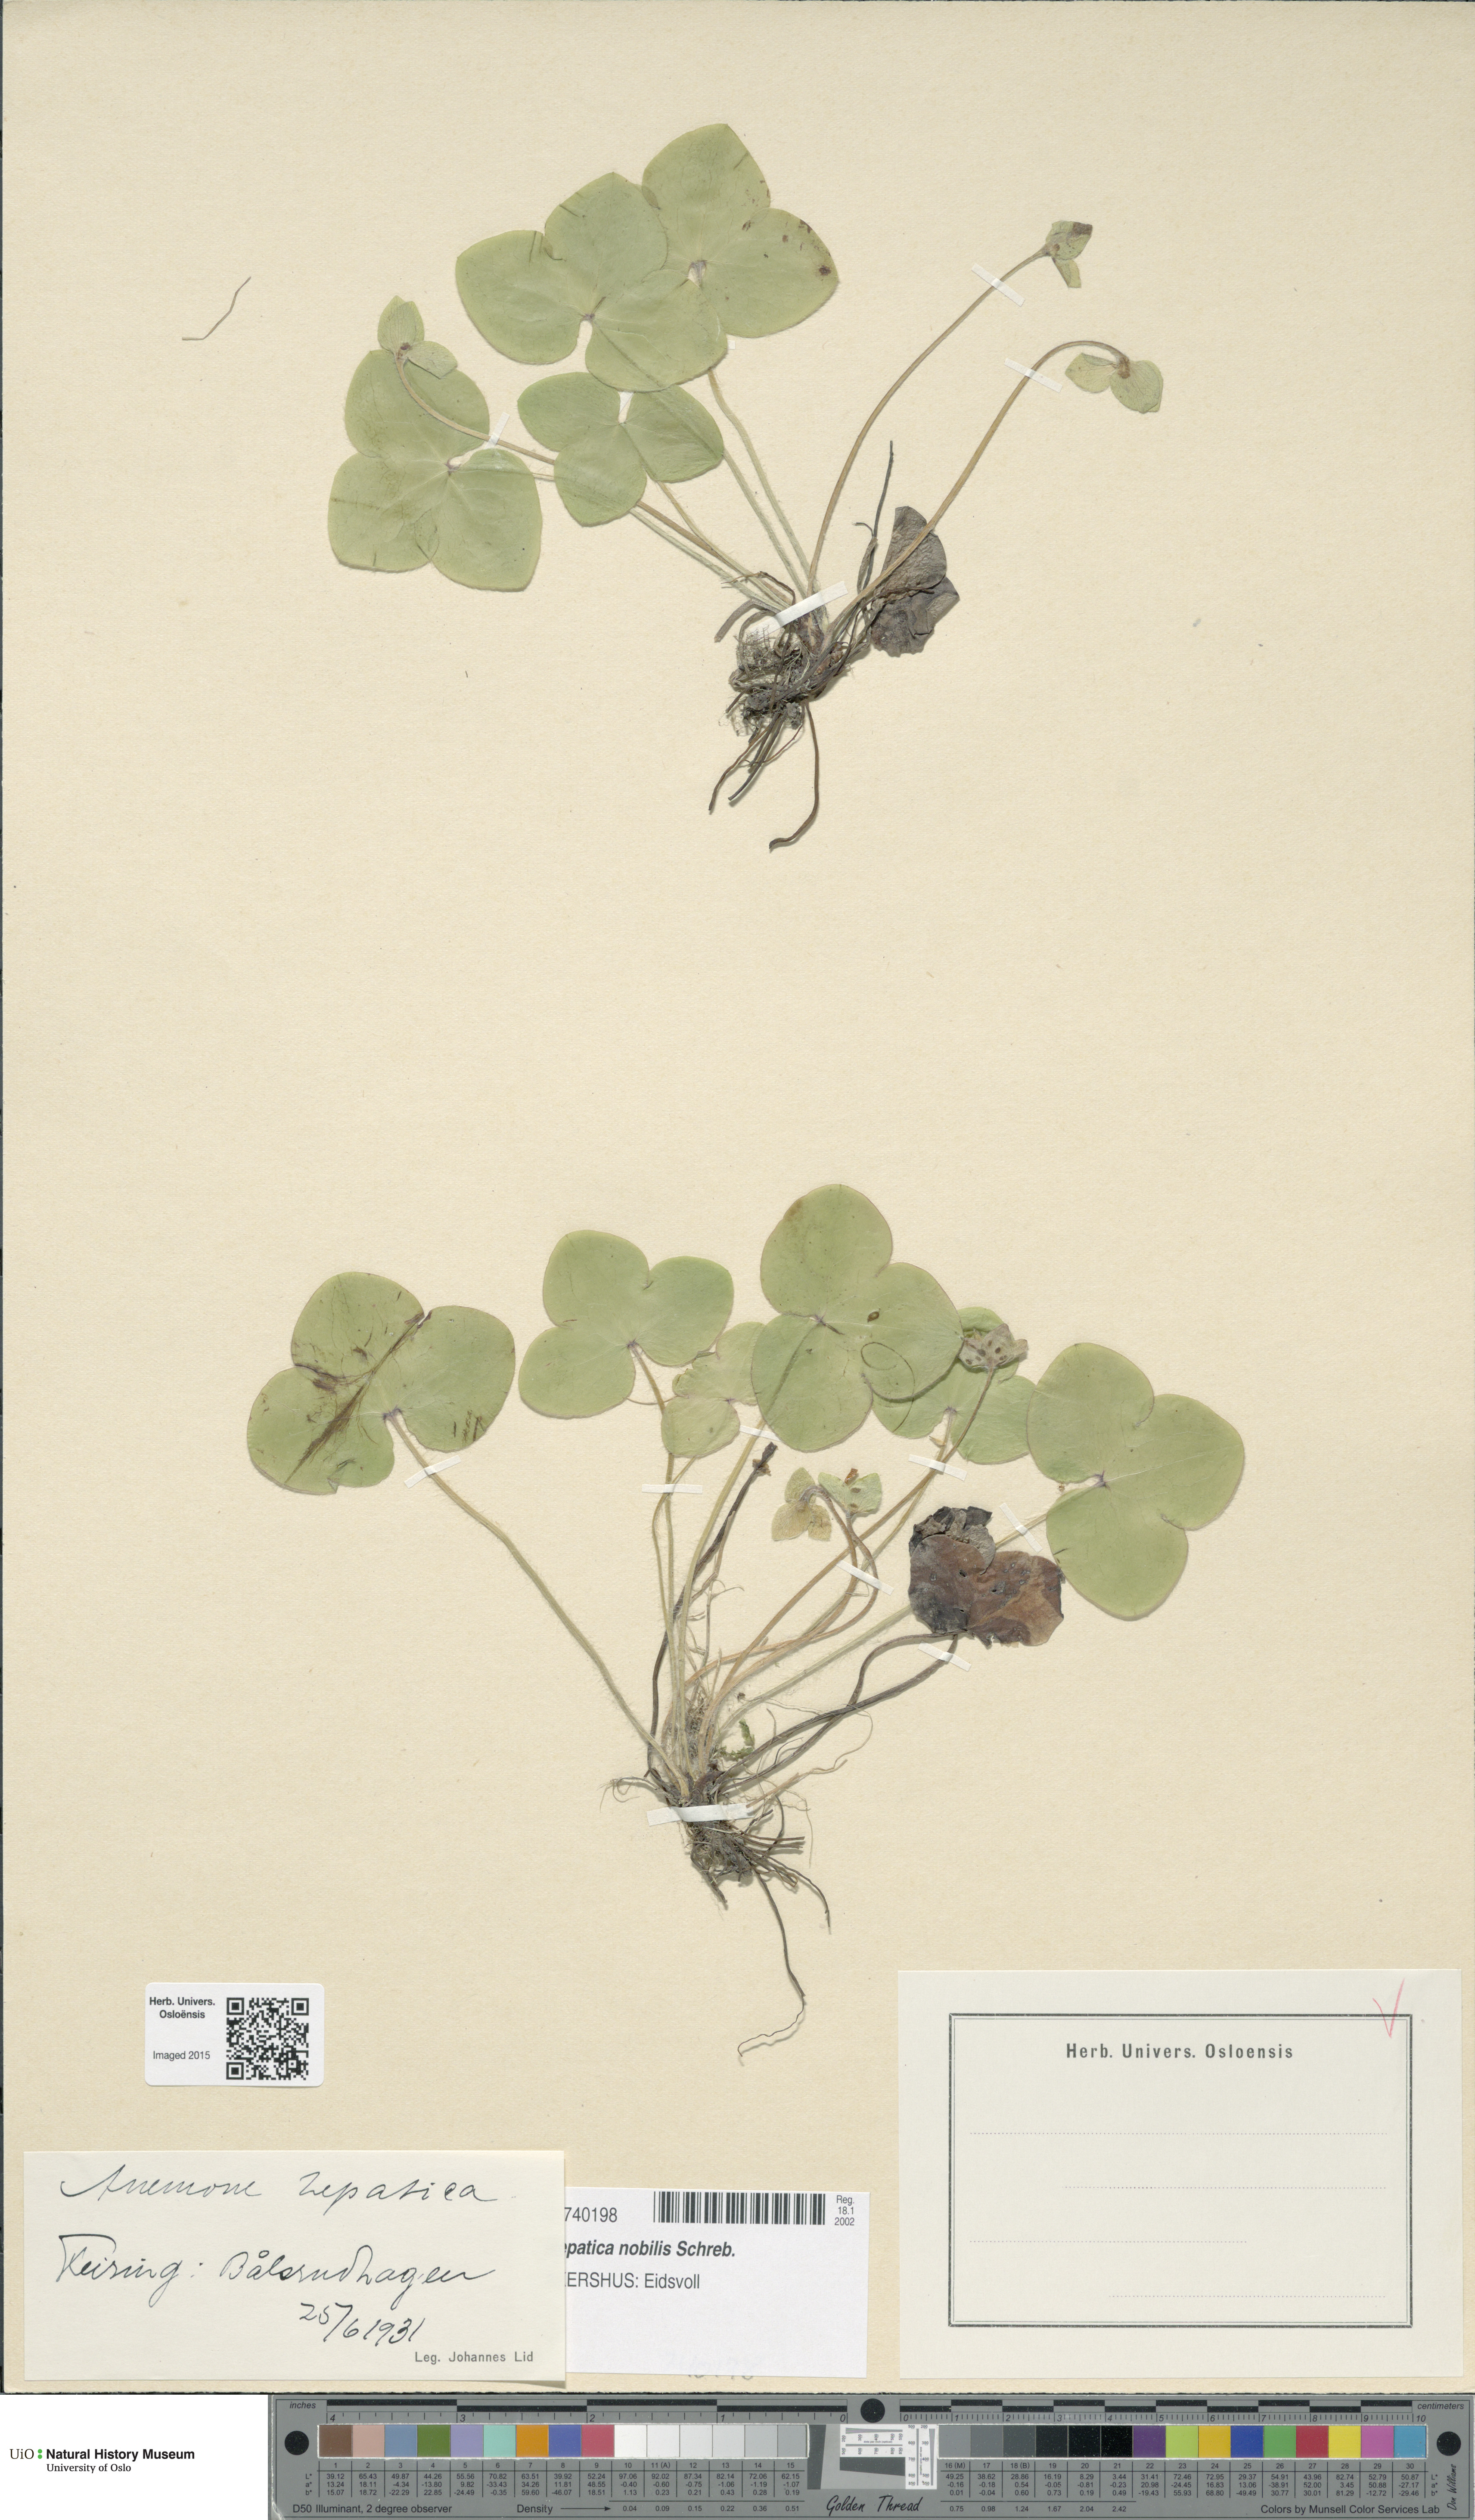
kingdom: Plantae
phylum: Tracheophyta
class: Magnoliopsida
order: Ranunculales
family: Ranunculaceae
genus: Hepatica
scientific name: Hepatica nobilis
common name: Liverleaf
